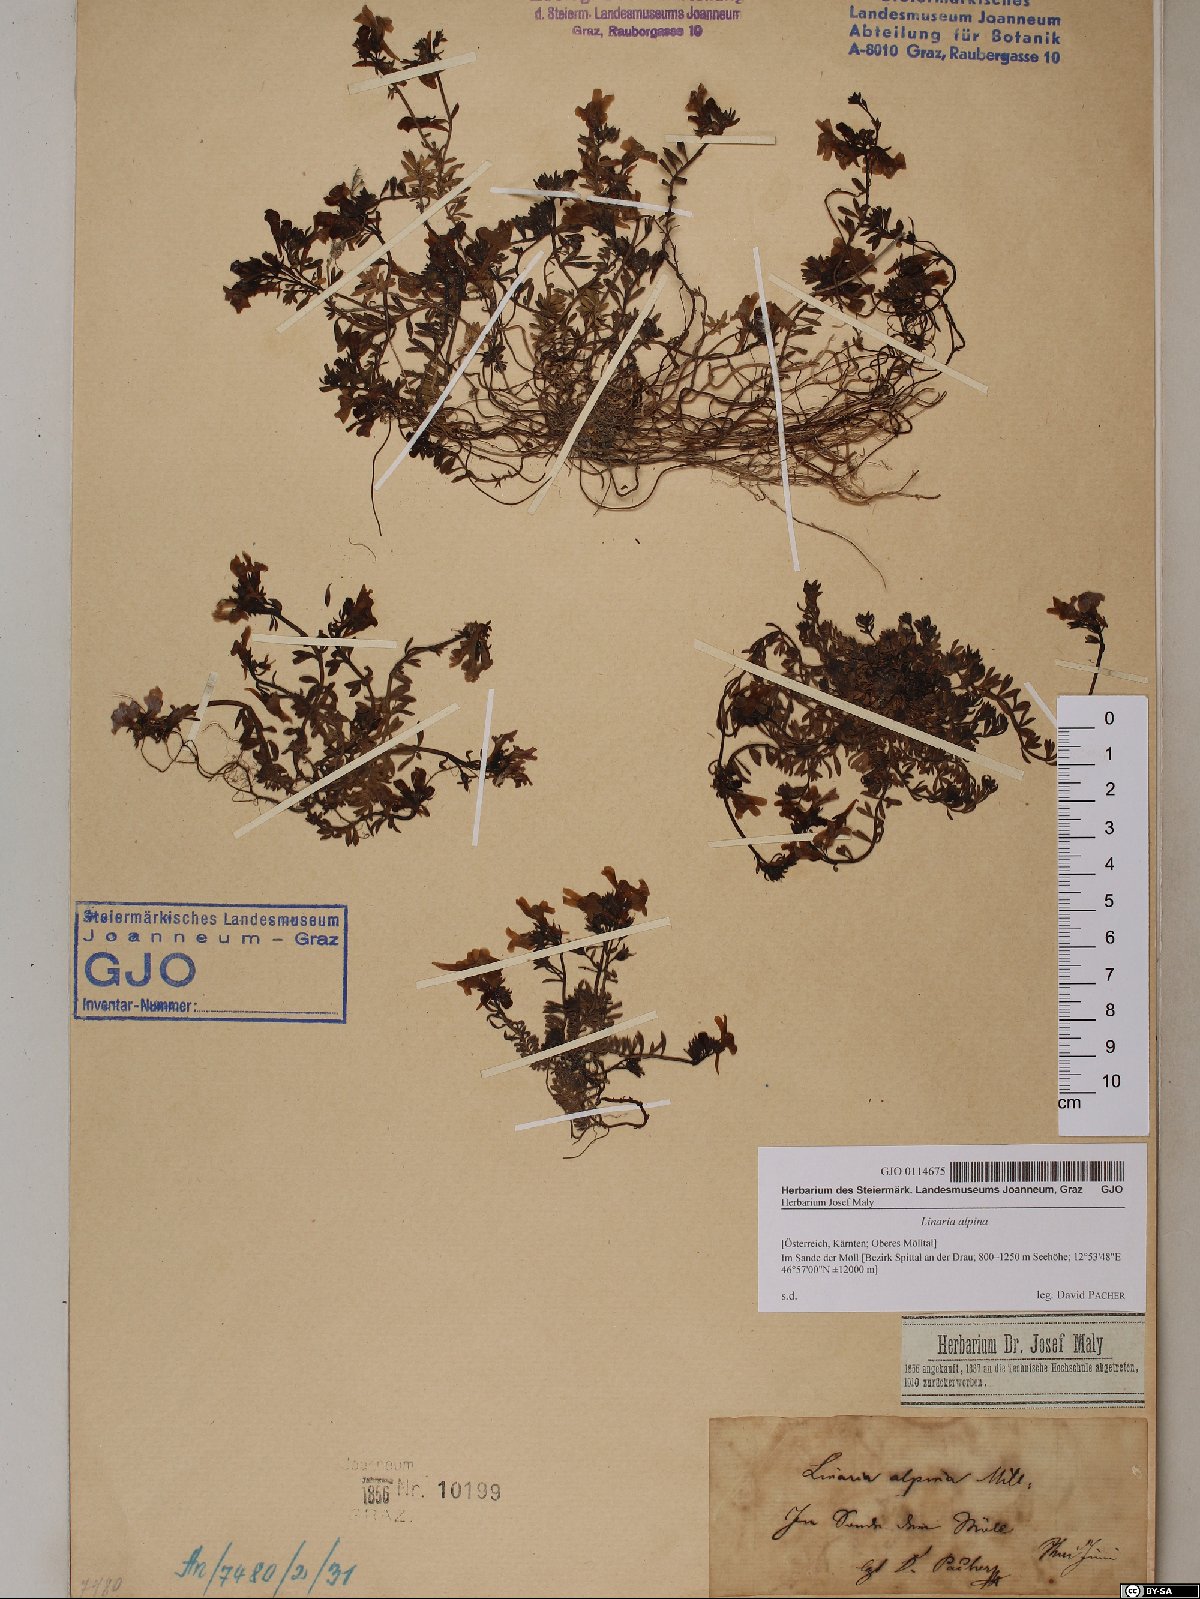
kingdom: Plantae
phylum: Tracheophyta
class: Magnoliopsida
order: Lamiales
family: Plantaginaceae
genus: Linaria
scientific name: Linaria alpina
